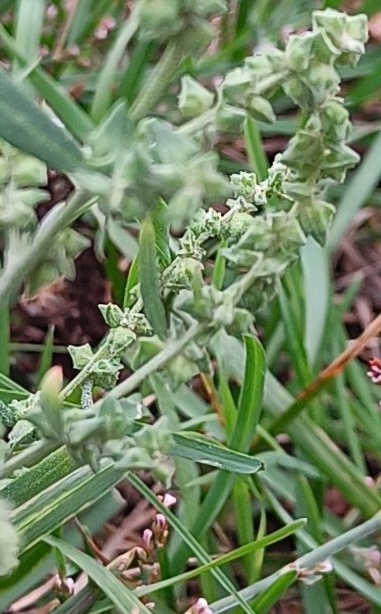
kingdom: Plantae
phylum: Tracheophyta
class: Magnoliopsida
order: Caryophyllales
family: Amaranthaceae
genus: Atriplex
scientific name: Atriplex littoralis
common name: Strand-mælde
